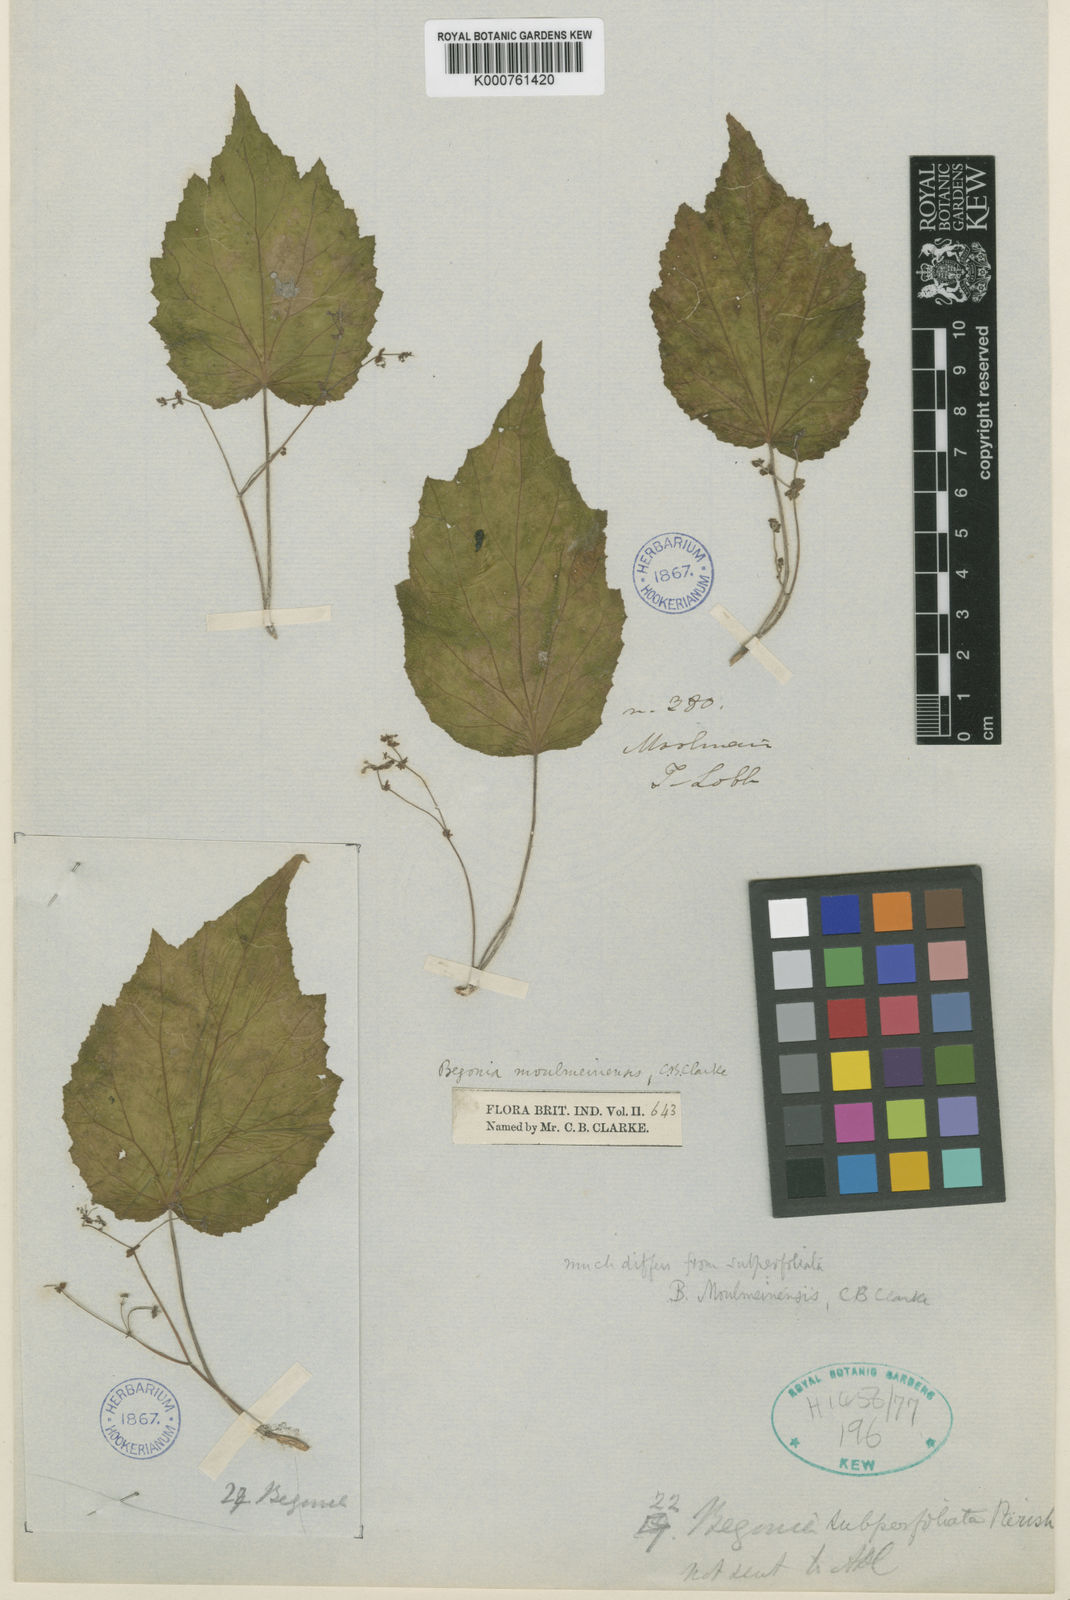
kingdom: Plantae
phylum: Tracheophyta
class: Magnoliopsida
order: Cucurbitales
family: Begoniaceae
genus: Begonia
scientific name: Begonia parvuliflora
